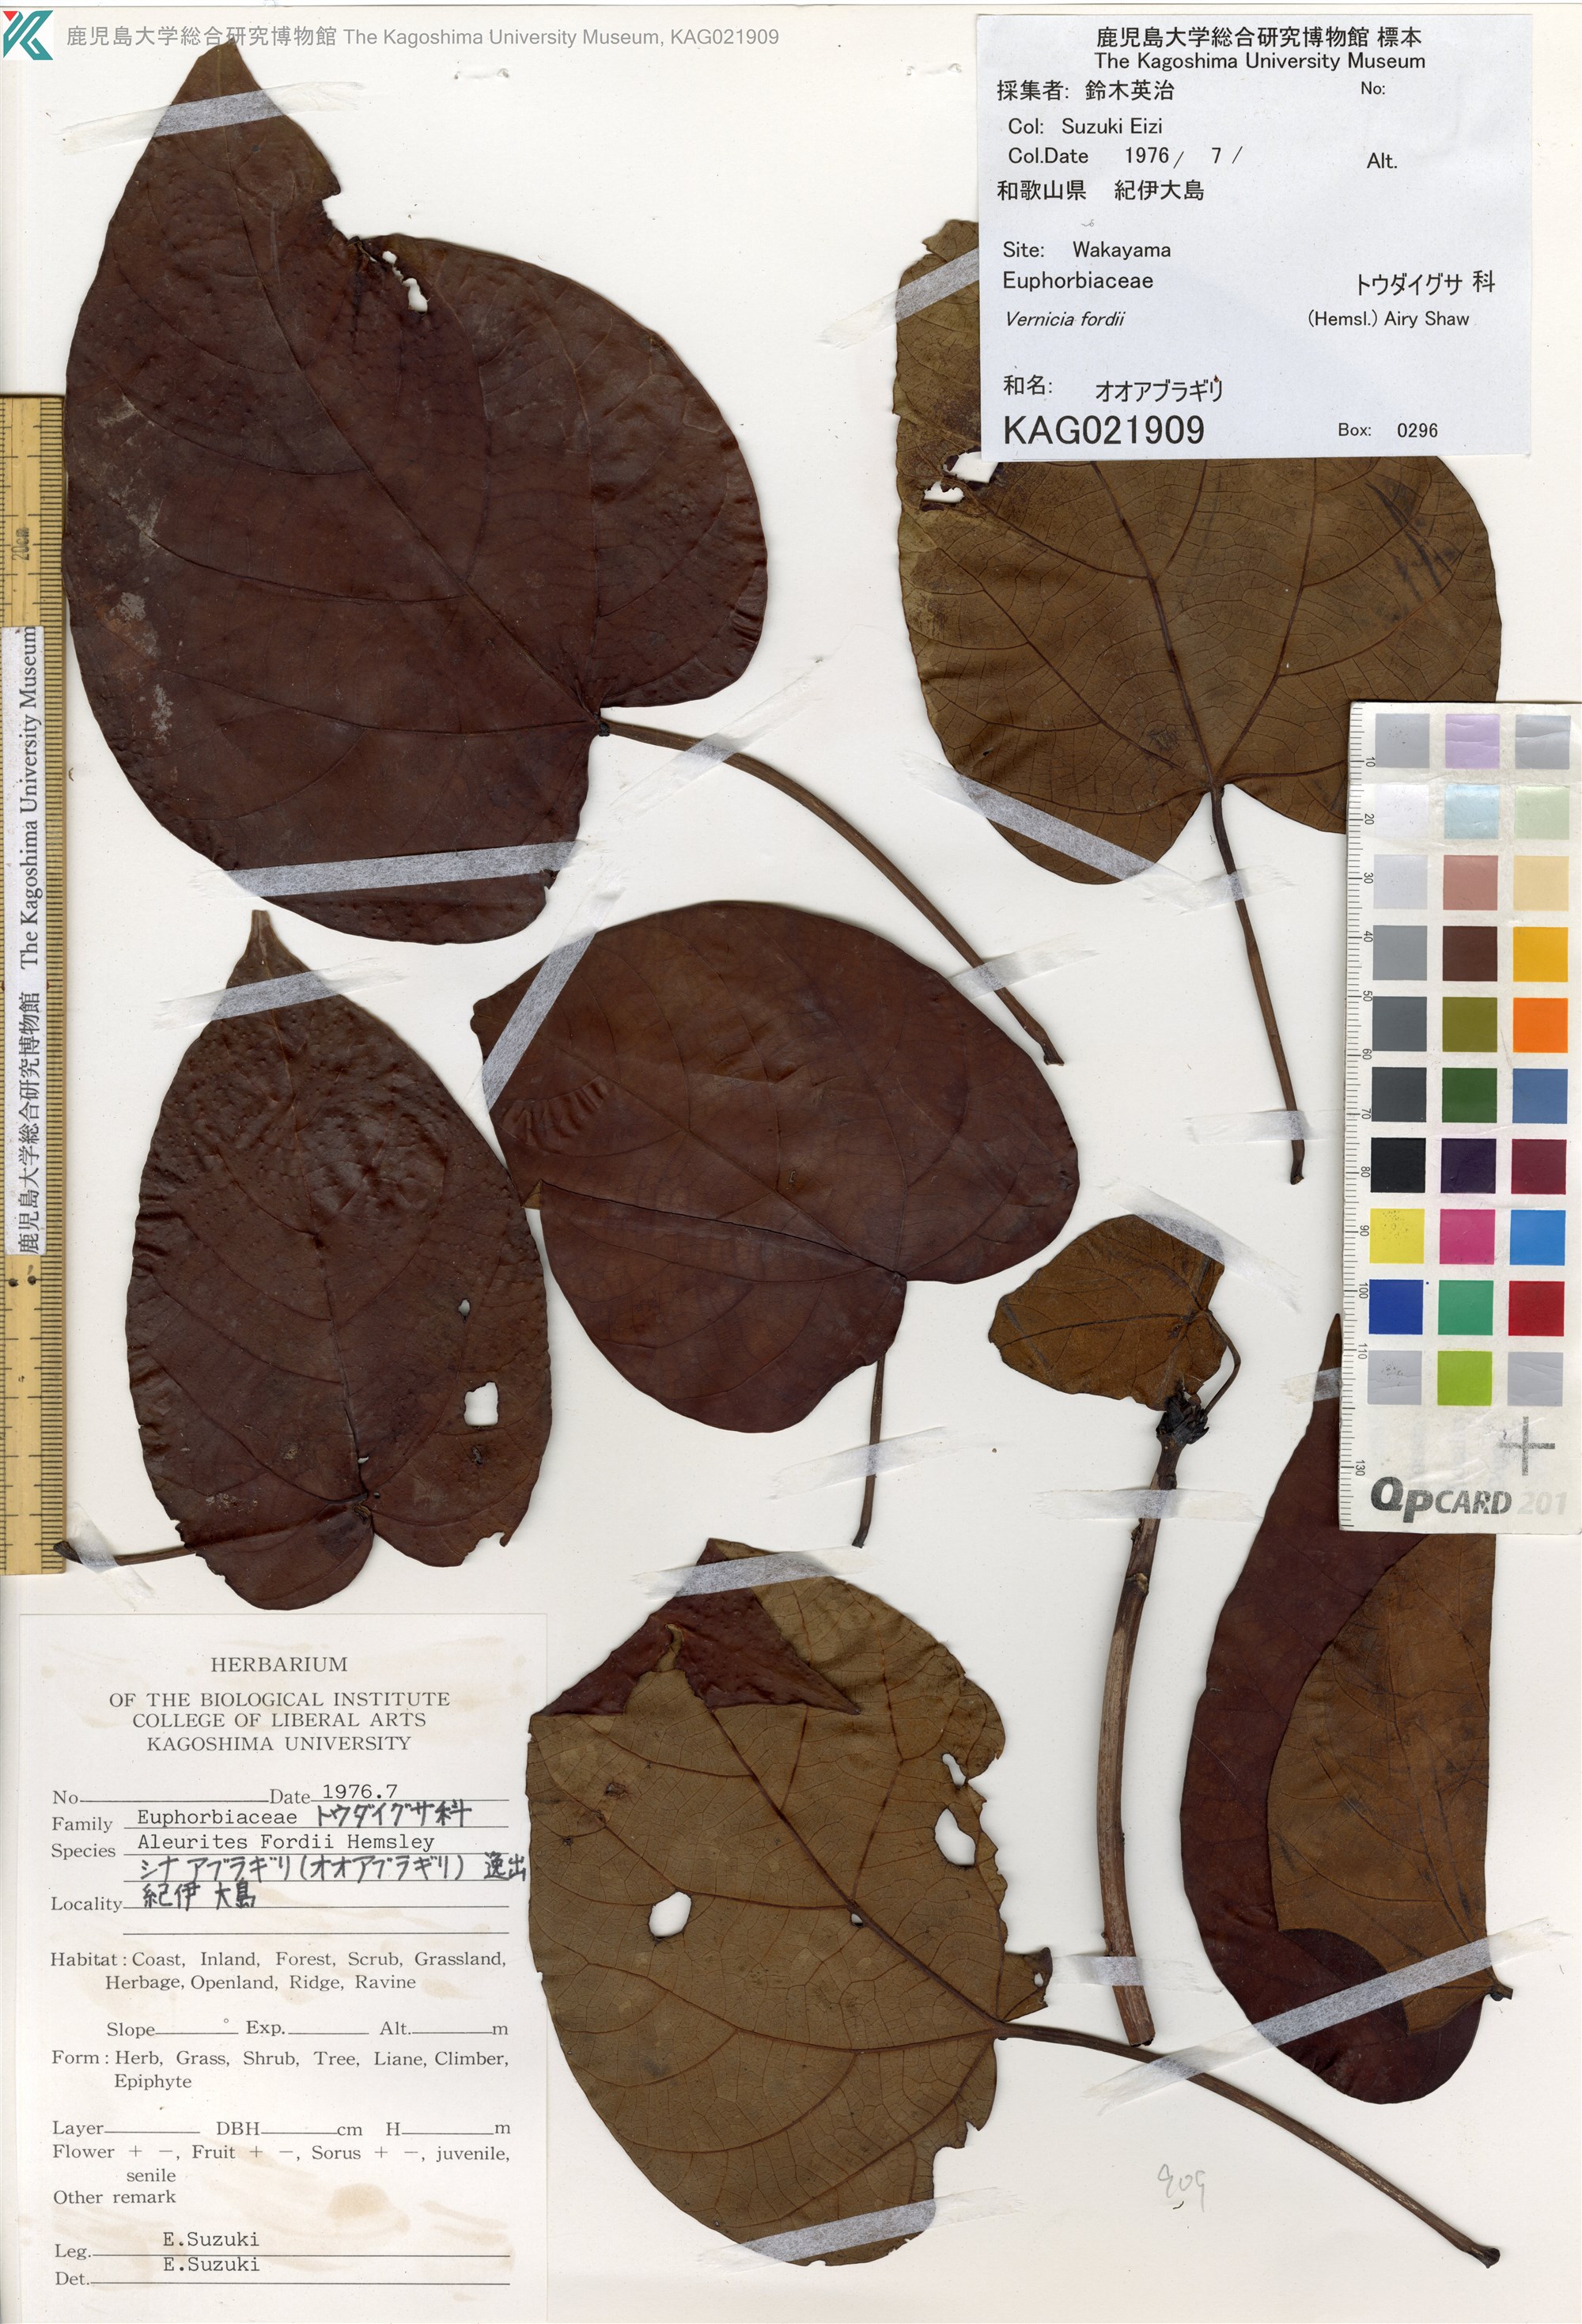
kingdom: Plantae
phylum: Tracheophyta
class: Magnoliopsida
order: Malpighiales
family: Euphorbiaceae
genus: Vernicia
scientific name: Vernicia fordii
